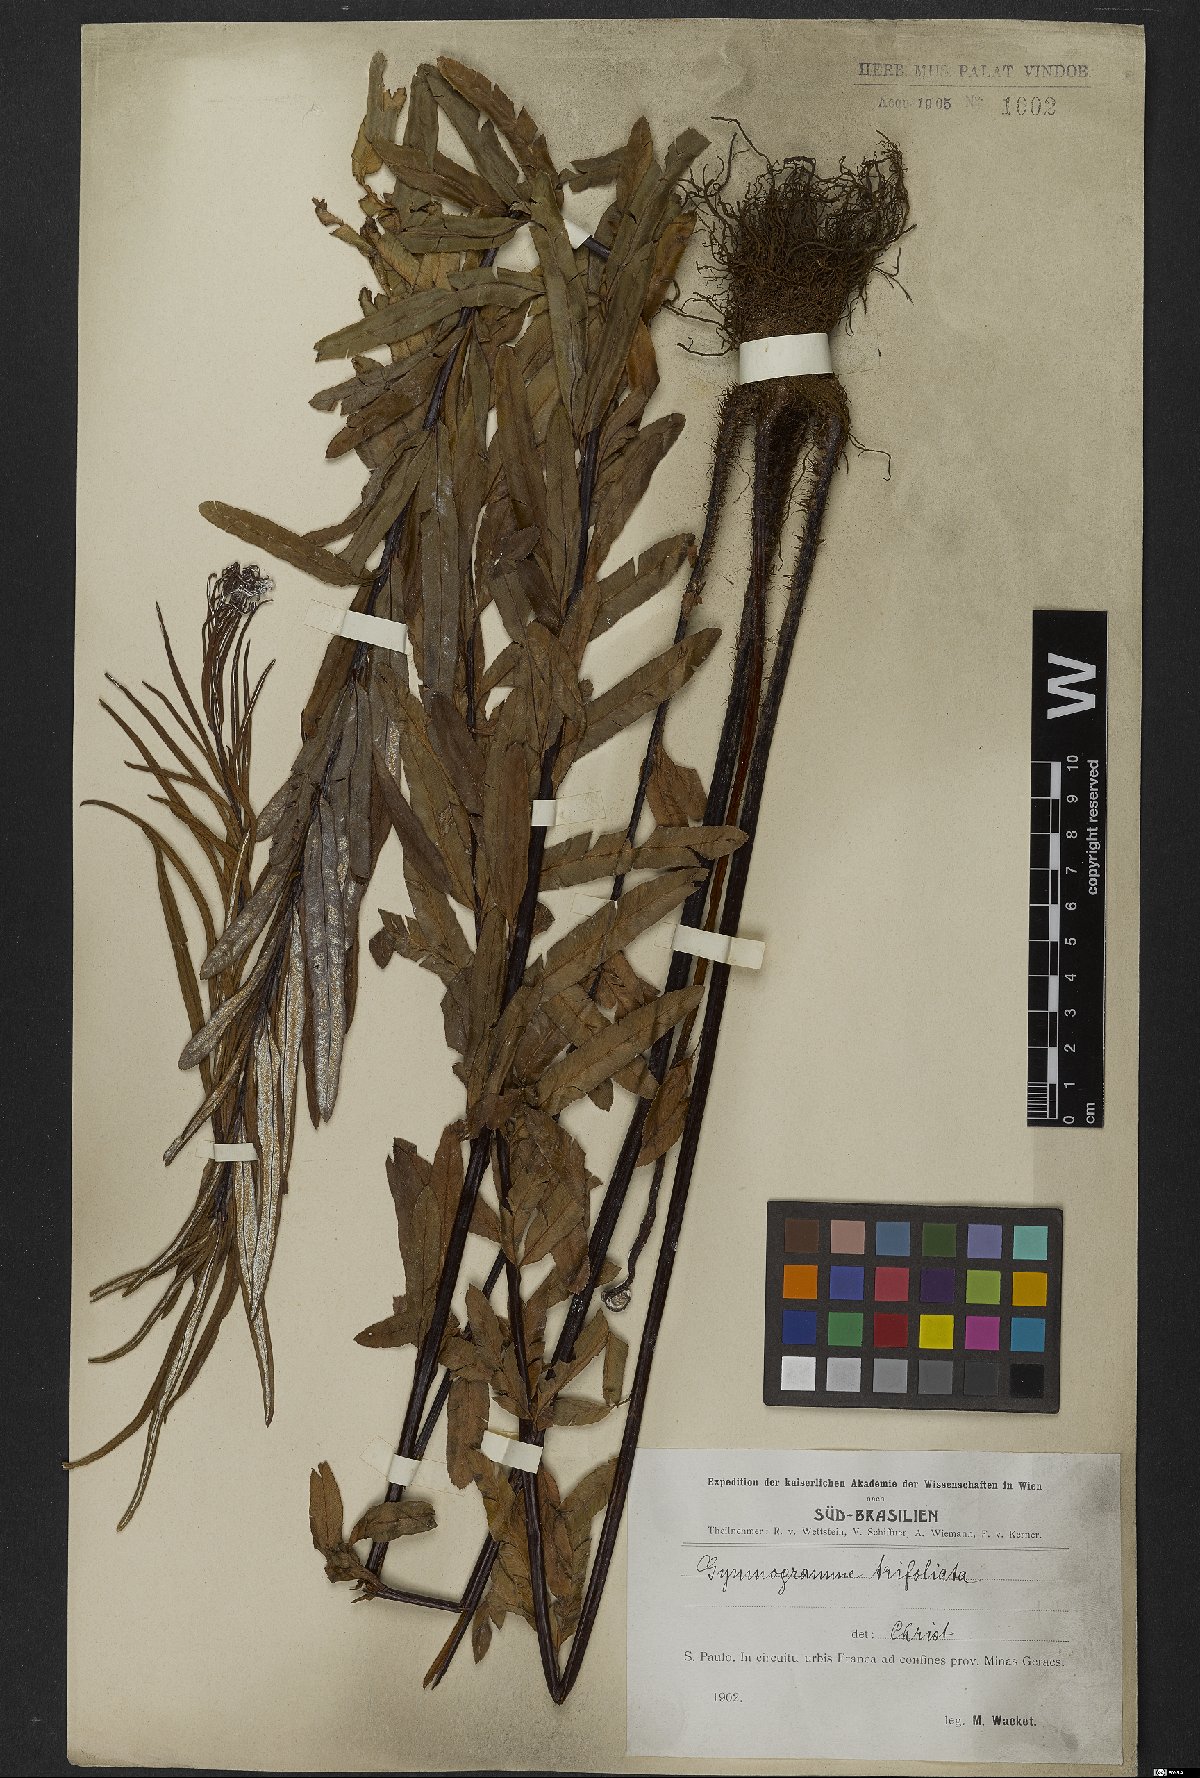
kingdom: Plantae
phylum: Tracheophyta
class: Polypodiopsida
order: Polypodiales
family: Pteridaceae
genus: Pityrogramma
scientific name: Pityrogramma trifoliata
